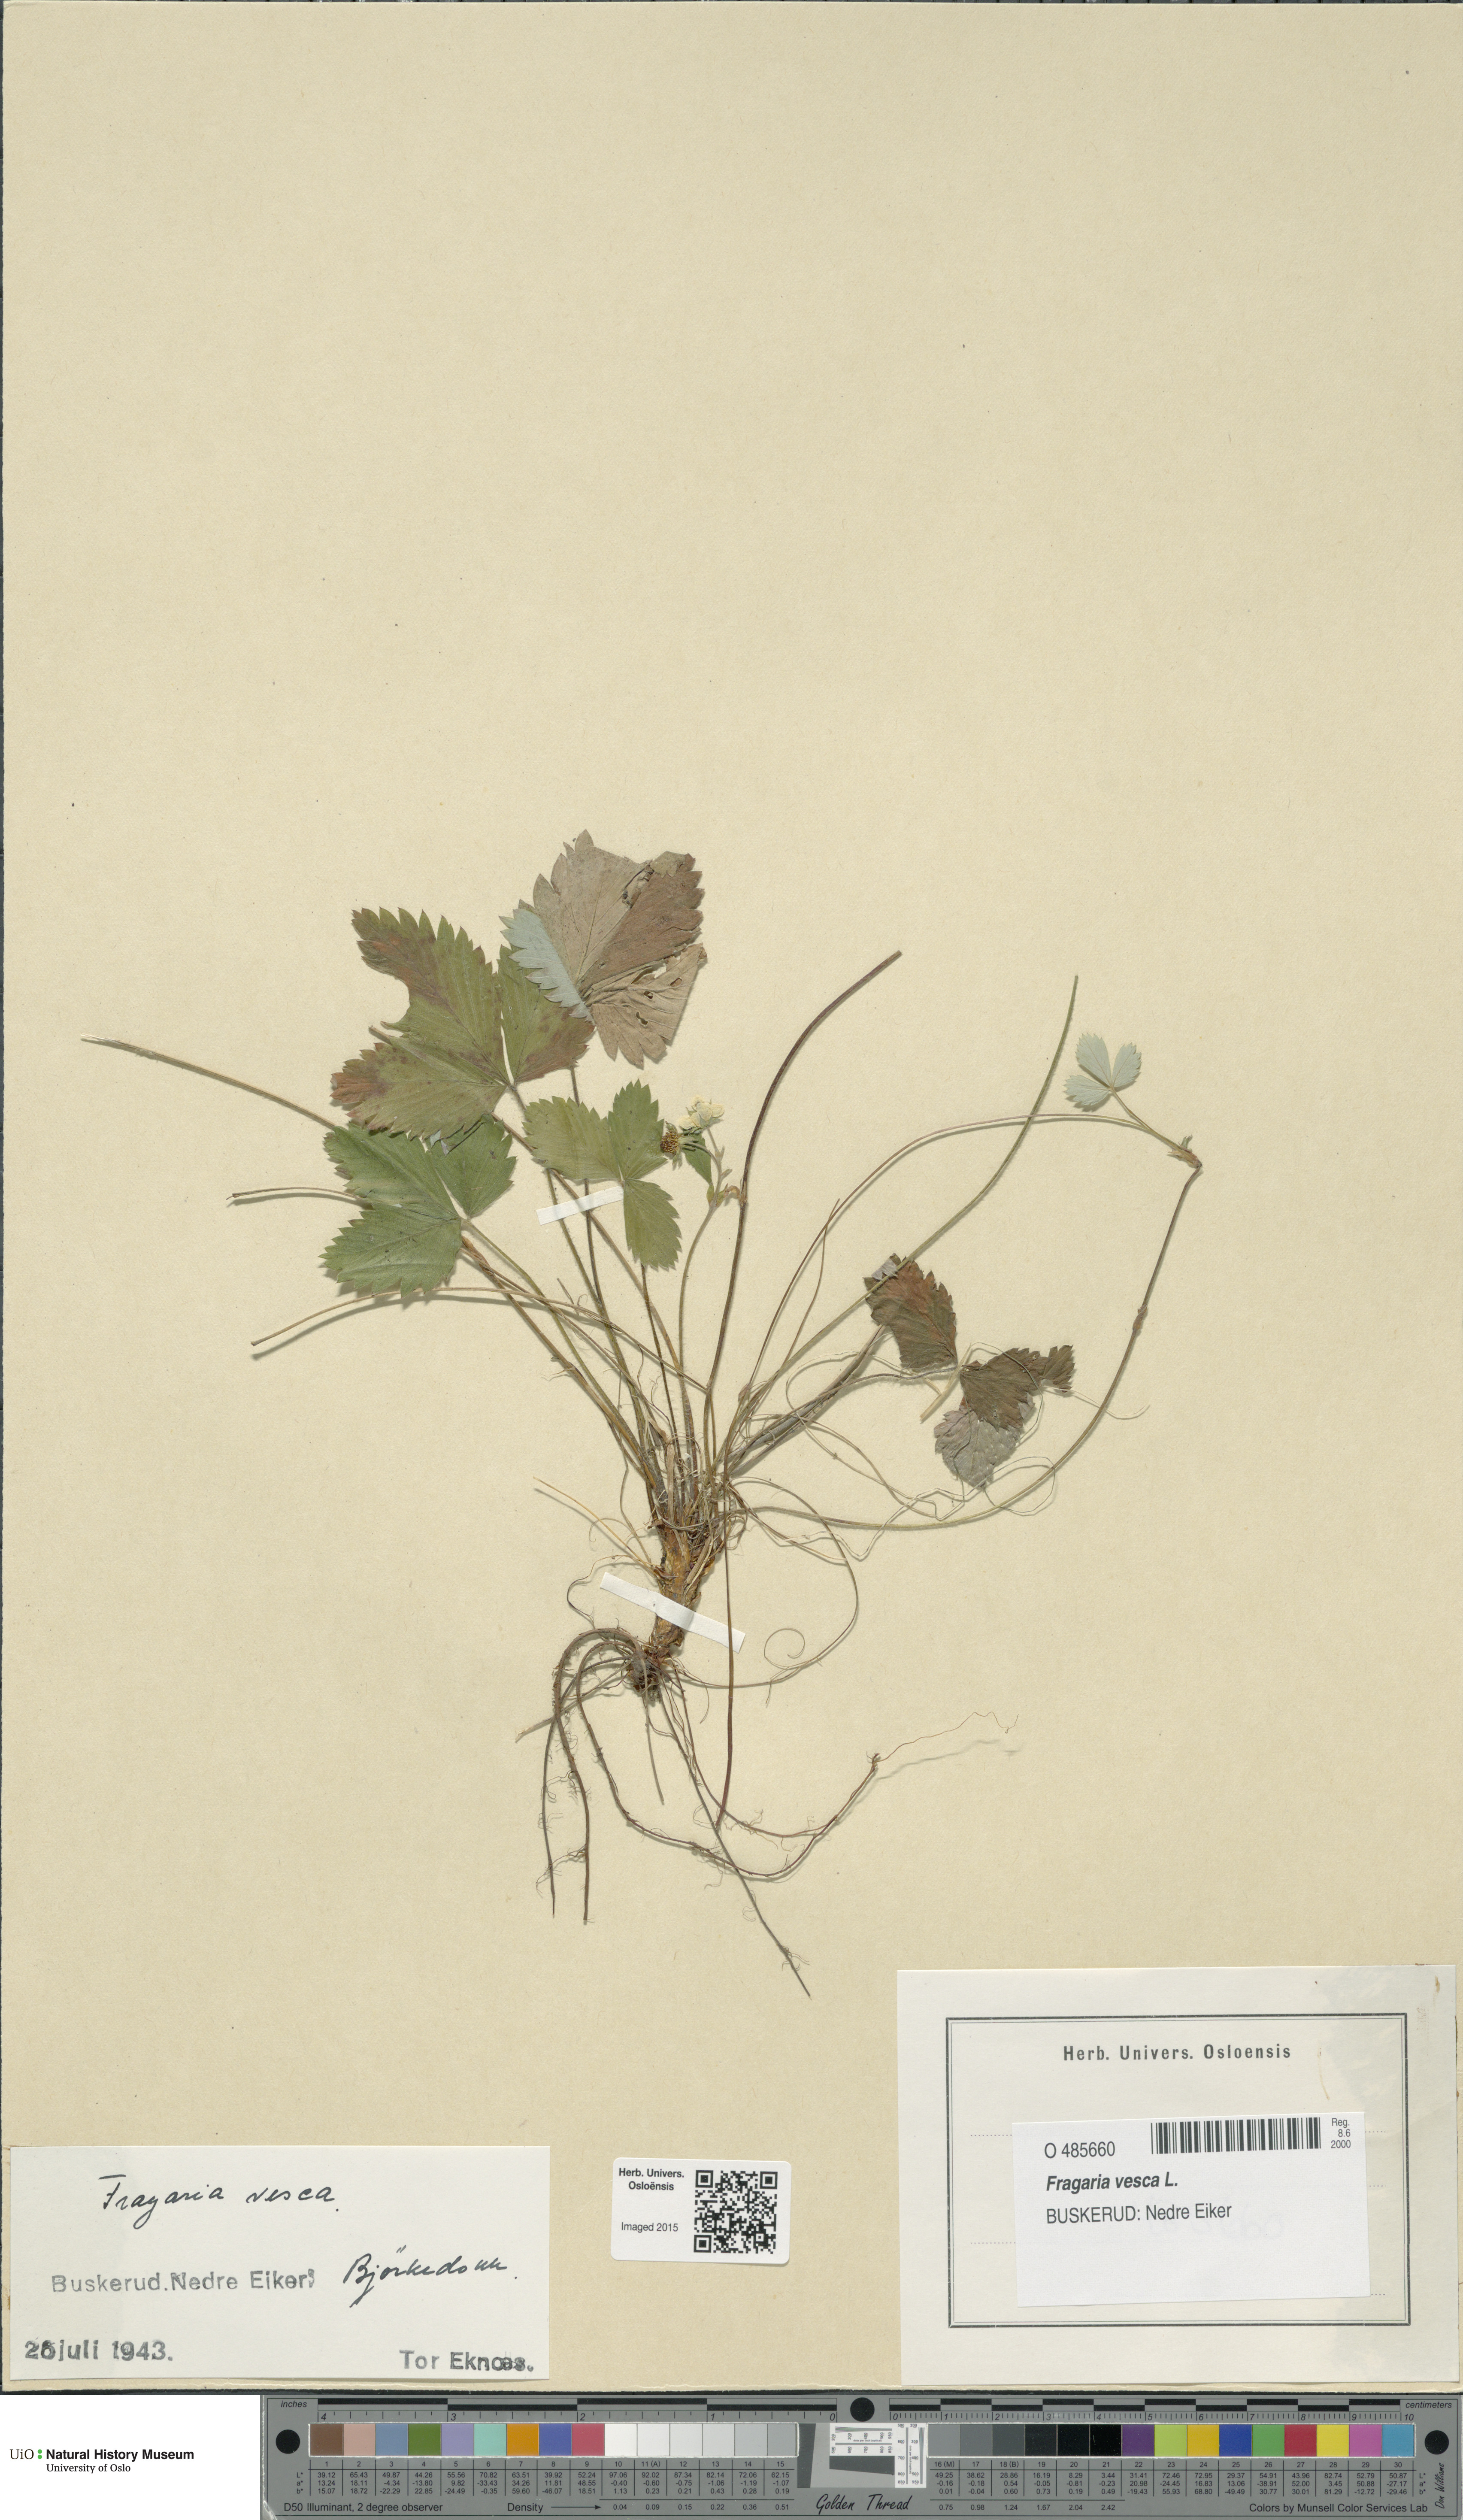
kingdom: Plantae
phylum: Tracheophyta
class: Magnoliopsida
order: Rosales
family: Rosaceae
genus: Fragaria
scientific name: Fragaria vesca
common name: Wild strawberry
